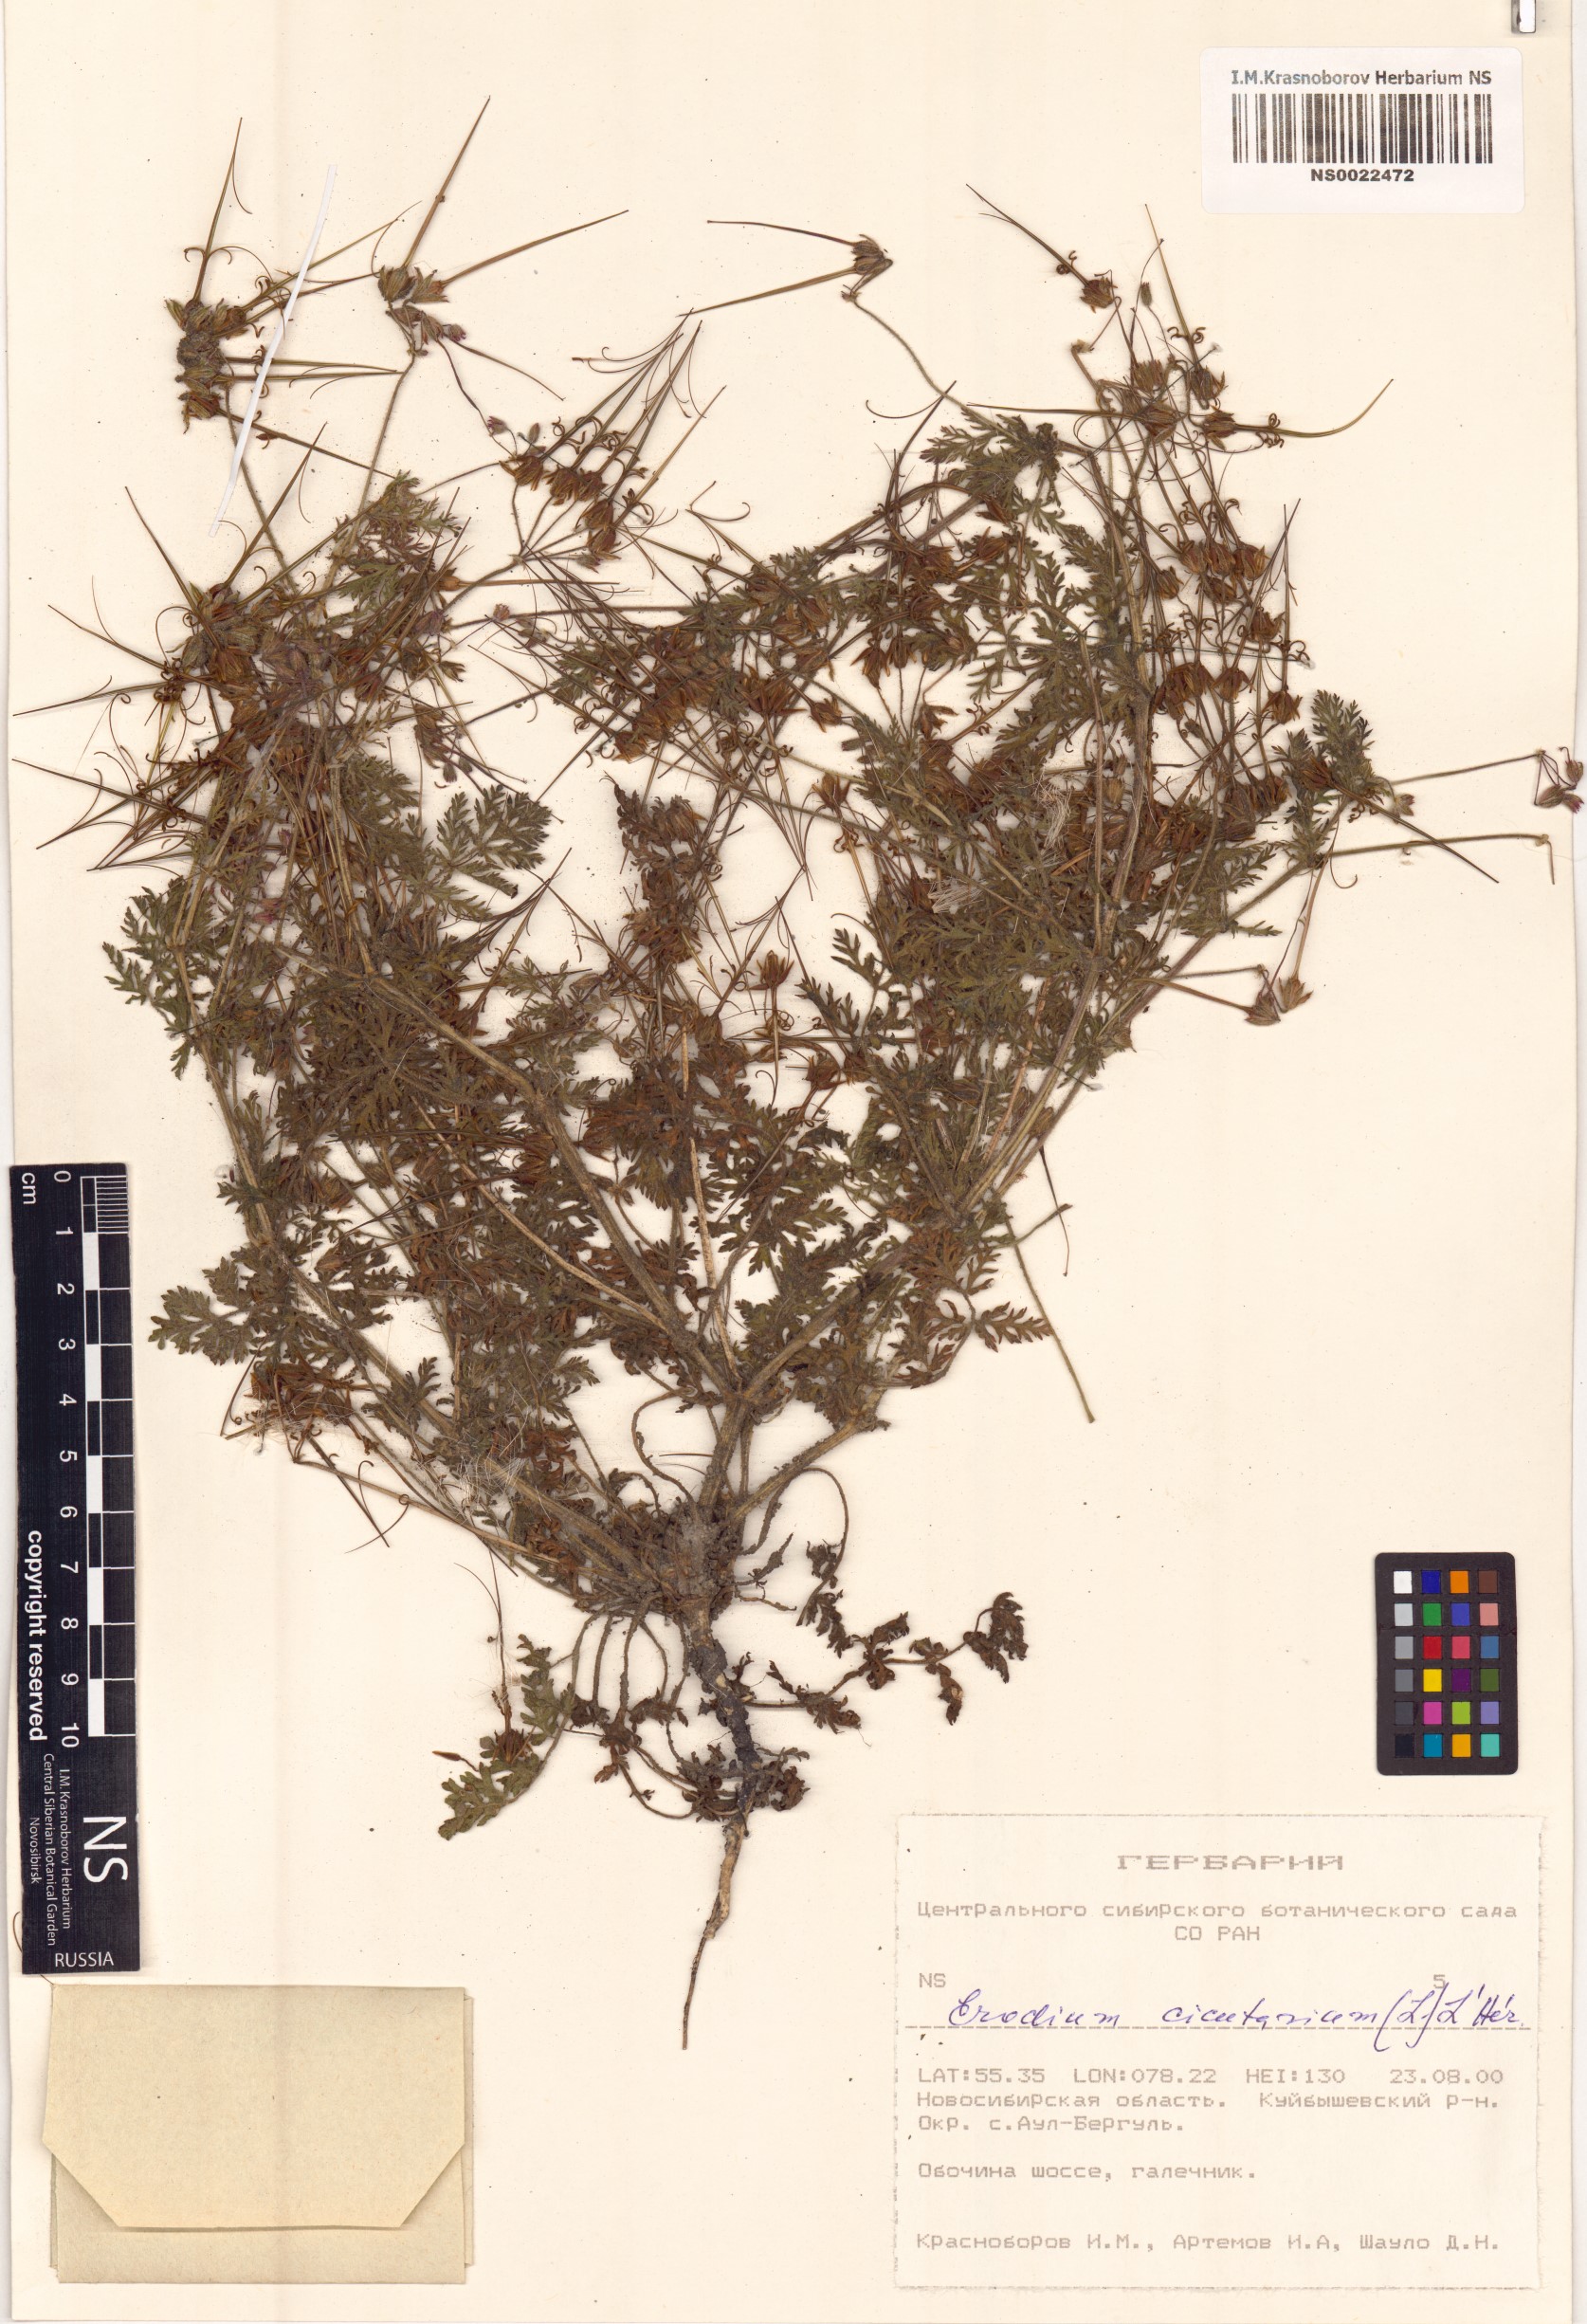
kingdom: Plantae
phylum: Tracheophyta
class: Magnoliopsida
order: Geraniales
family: Geraniaceae
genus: Erodium
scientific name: Erodium cicutarium
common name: Common stork's-bill
